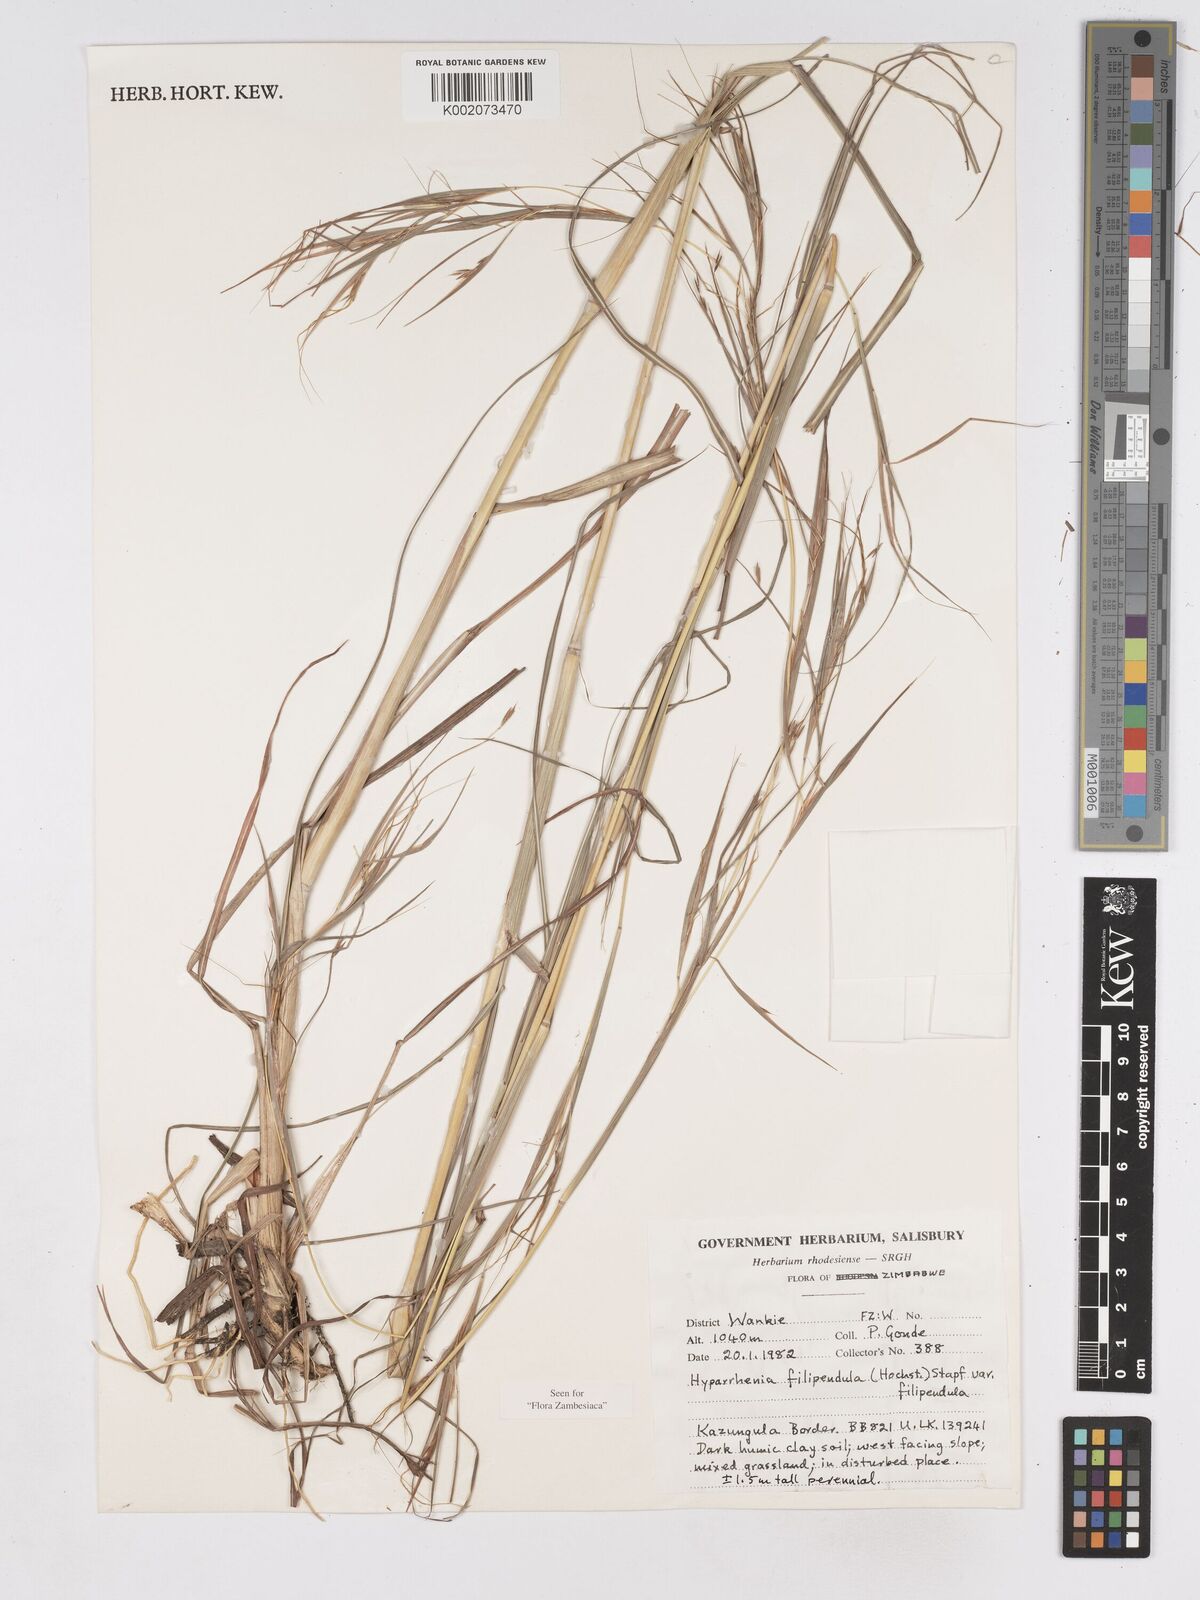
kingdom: Plantae
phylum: Tracheophyta
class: Liliopsida
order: Poales
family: Poaceae
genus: Hyparrhenia
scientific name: Hyparrhenia filipendula
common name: Tambookie grass
